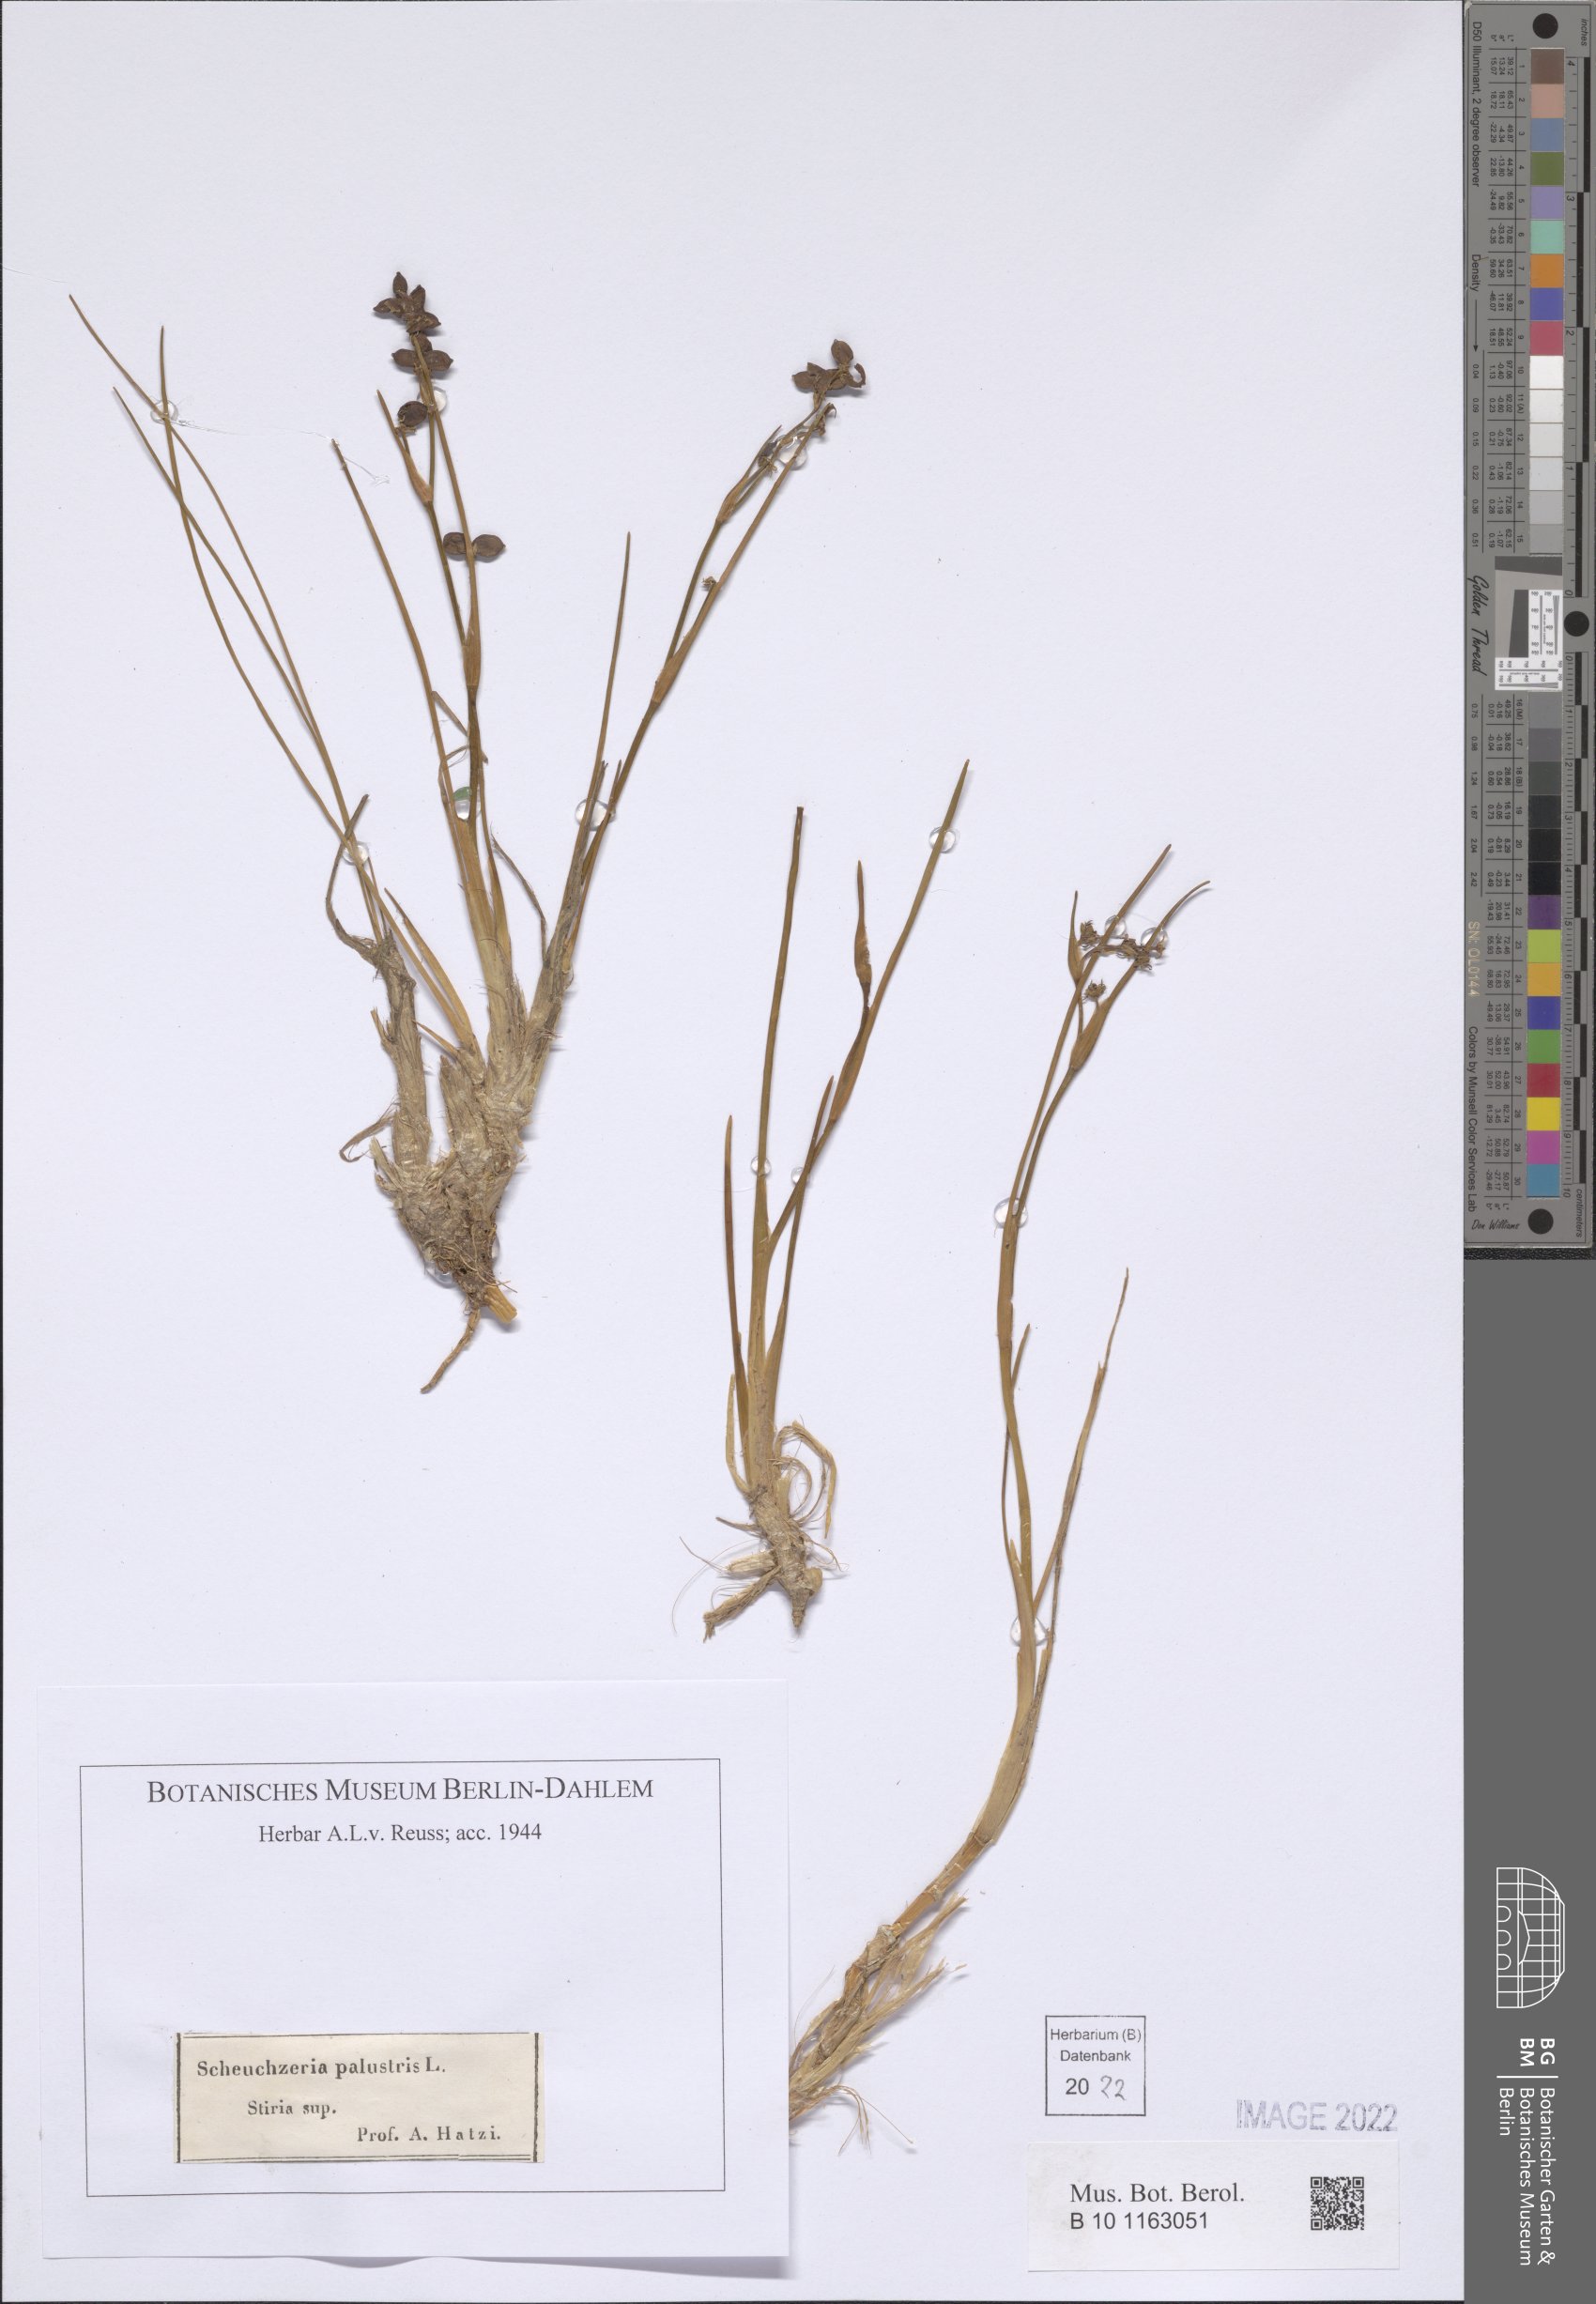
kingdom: Plantae
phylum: Tracheophyta
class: Liliopsida
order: Alismatales
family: Scheuchzeriaceae
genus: Scheuchzeria
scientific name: Scheuchzeria palustris
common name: Rannoch-rush
